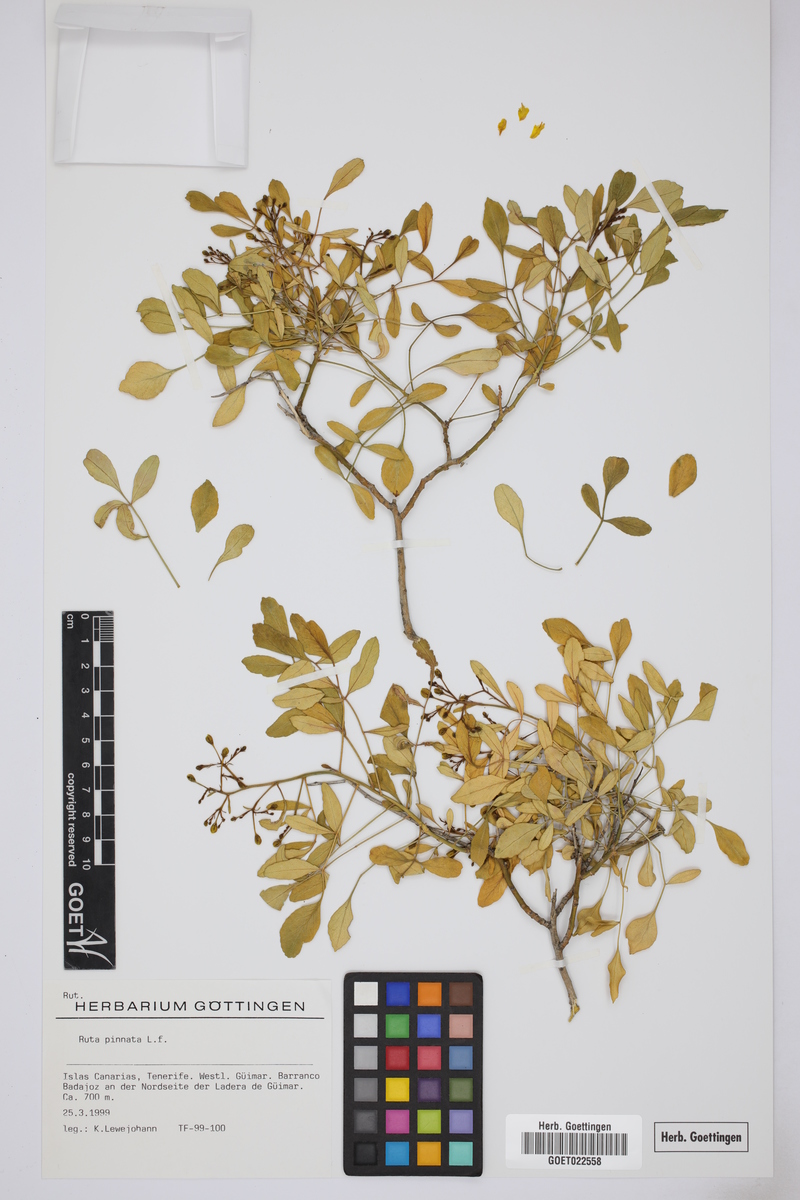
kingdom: Plantae
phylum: Tracheophyta
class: Magnoliopsida
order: Sapindales
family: Rutaceae
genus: Ruta
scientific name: Ruta pinnata
